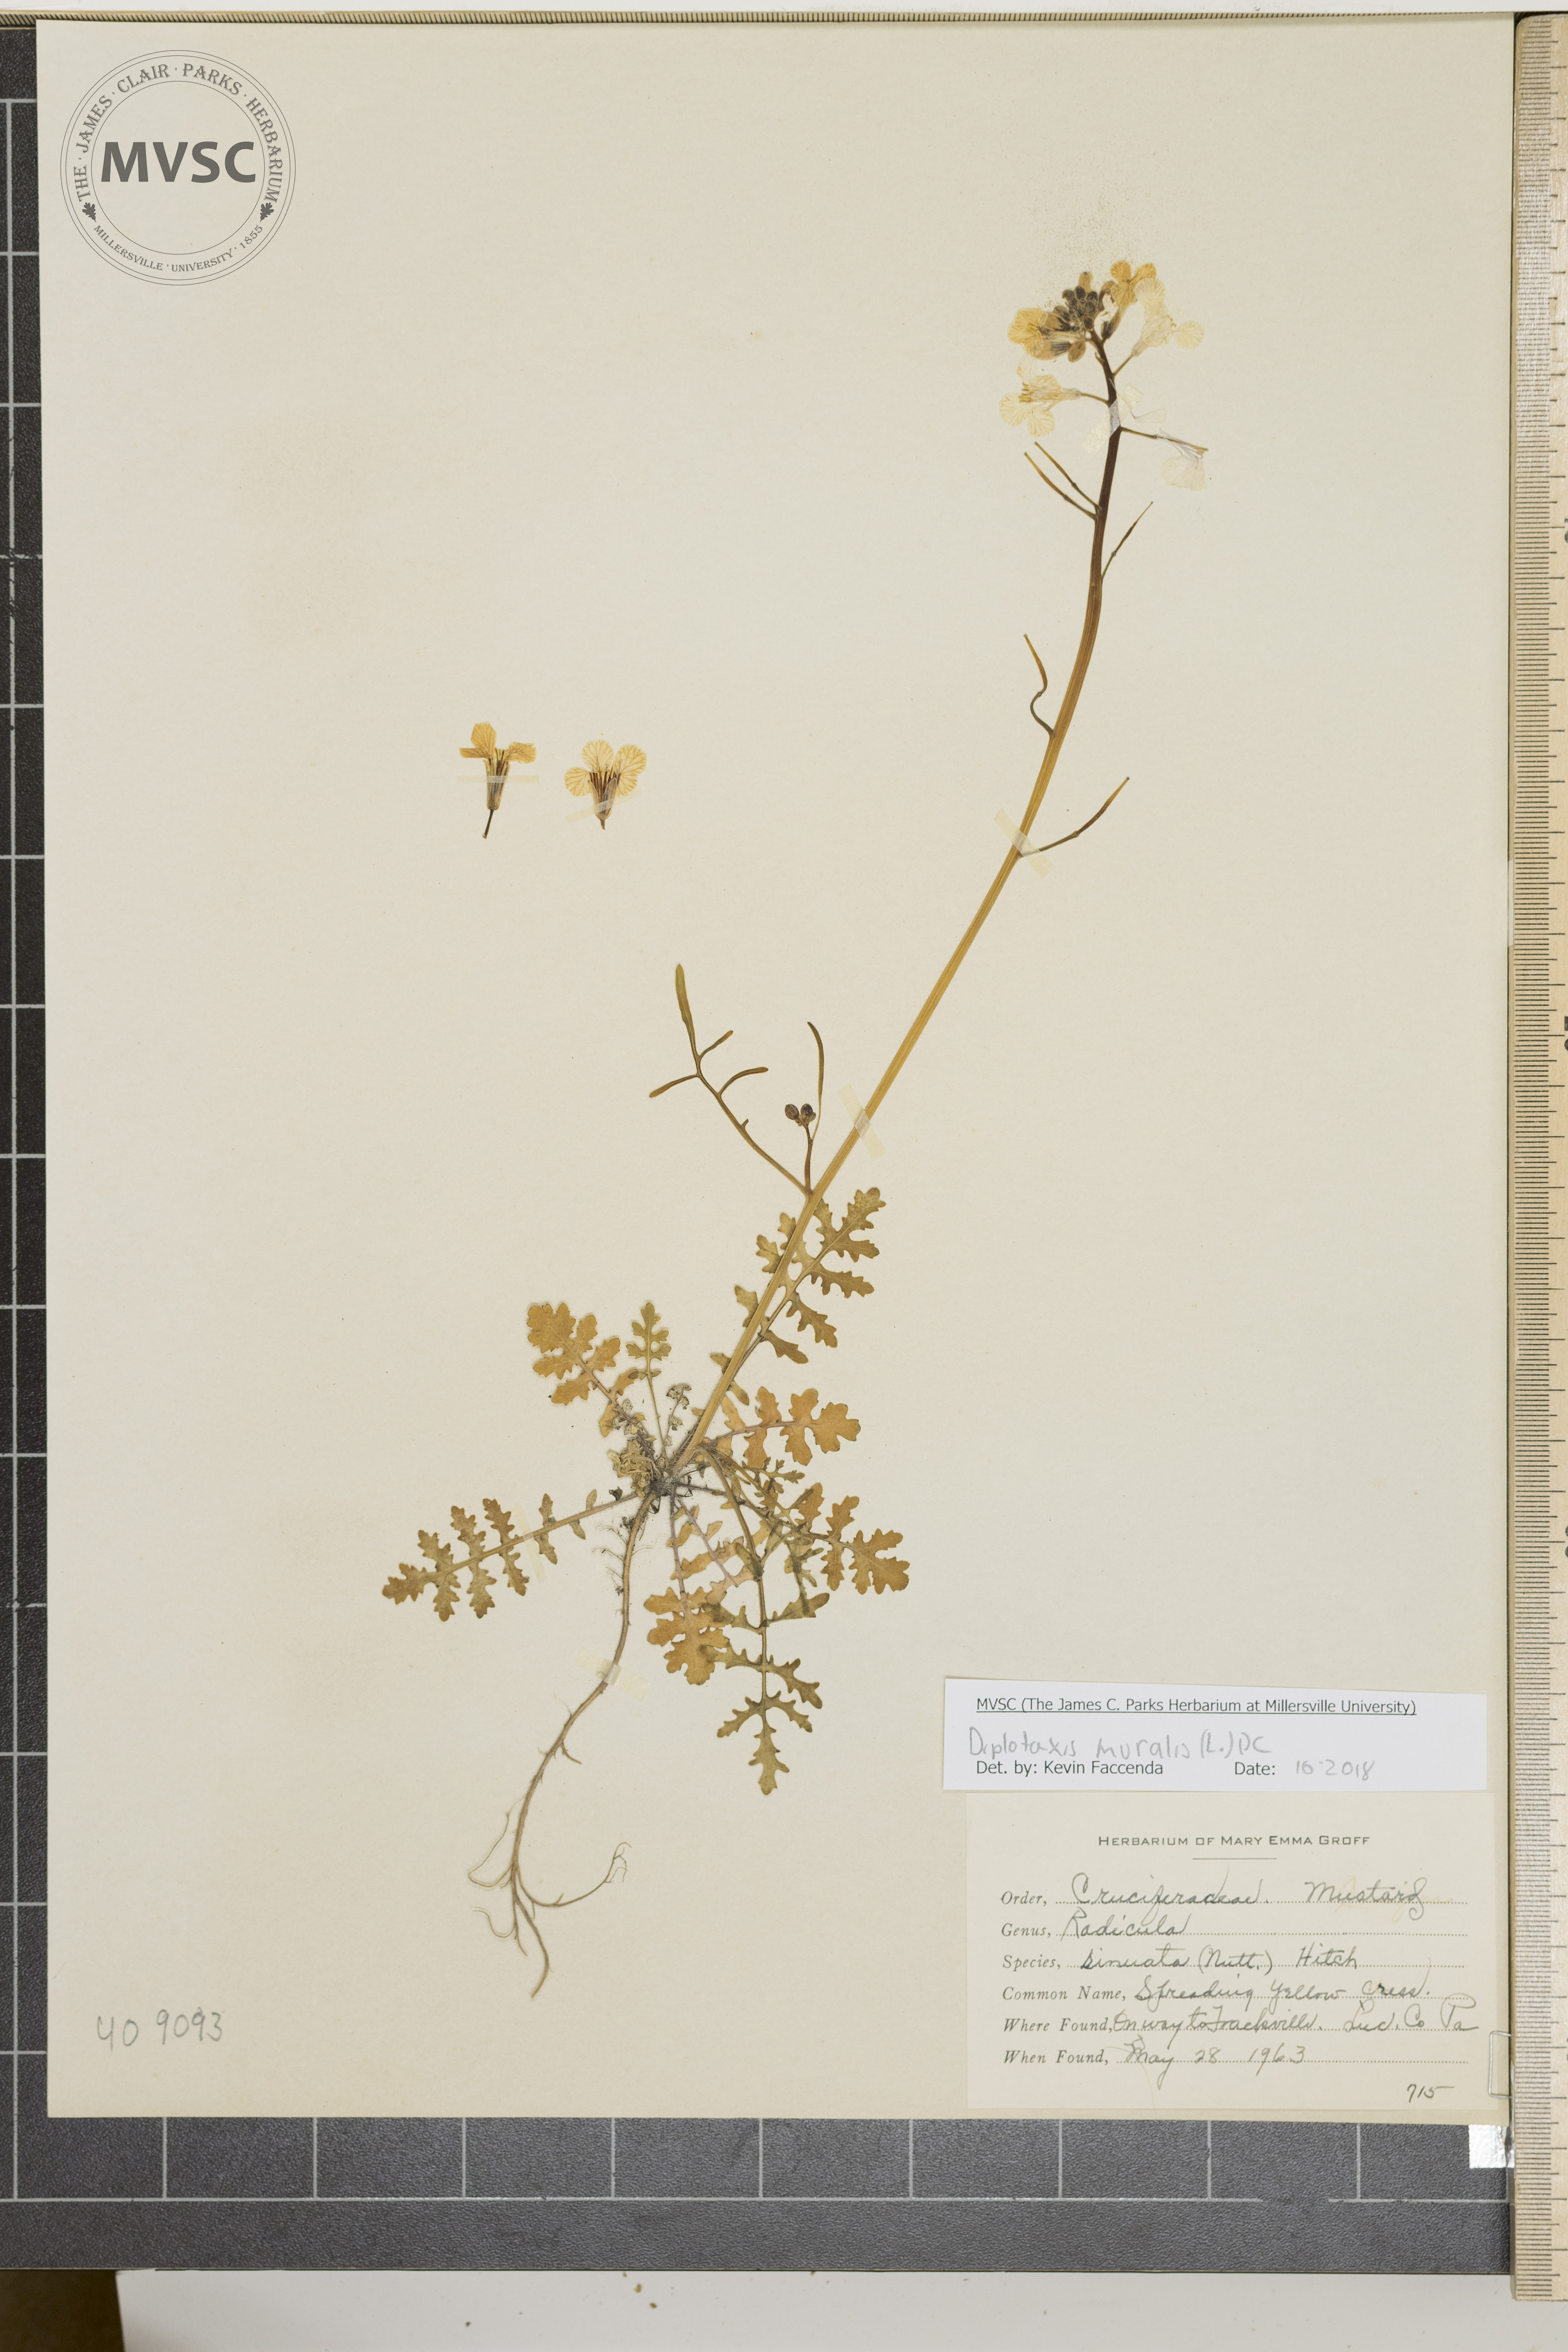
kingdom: Plantae
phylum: Tracheophyta
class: Magnoliopsida
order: Brassicales
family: Brassicaceae
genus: Diplotaxis
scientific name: Diplotaxis muralis
